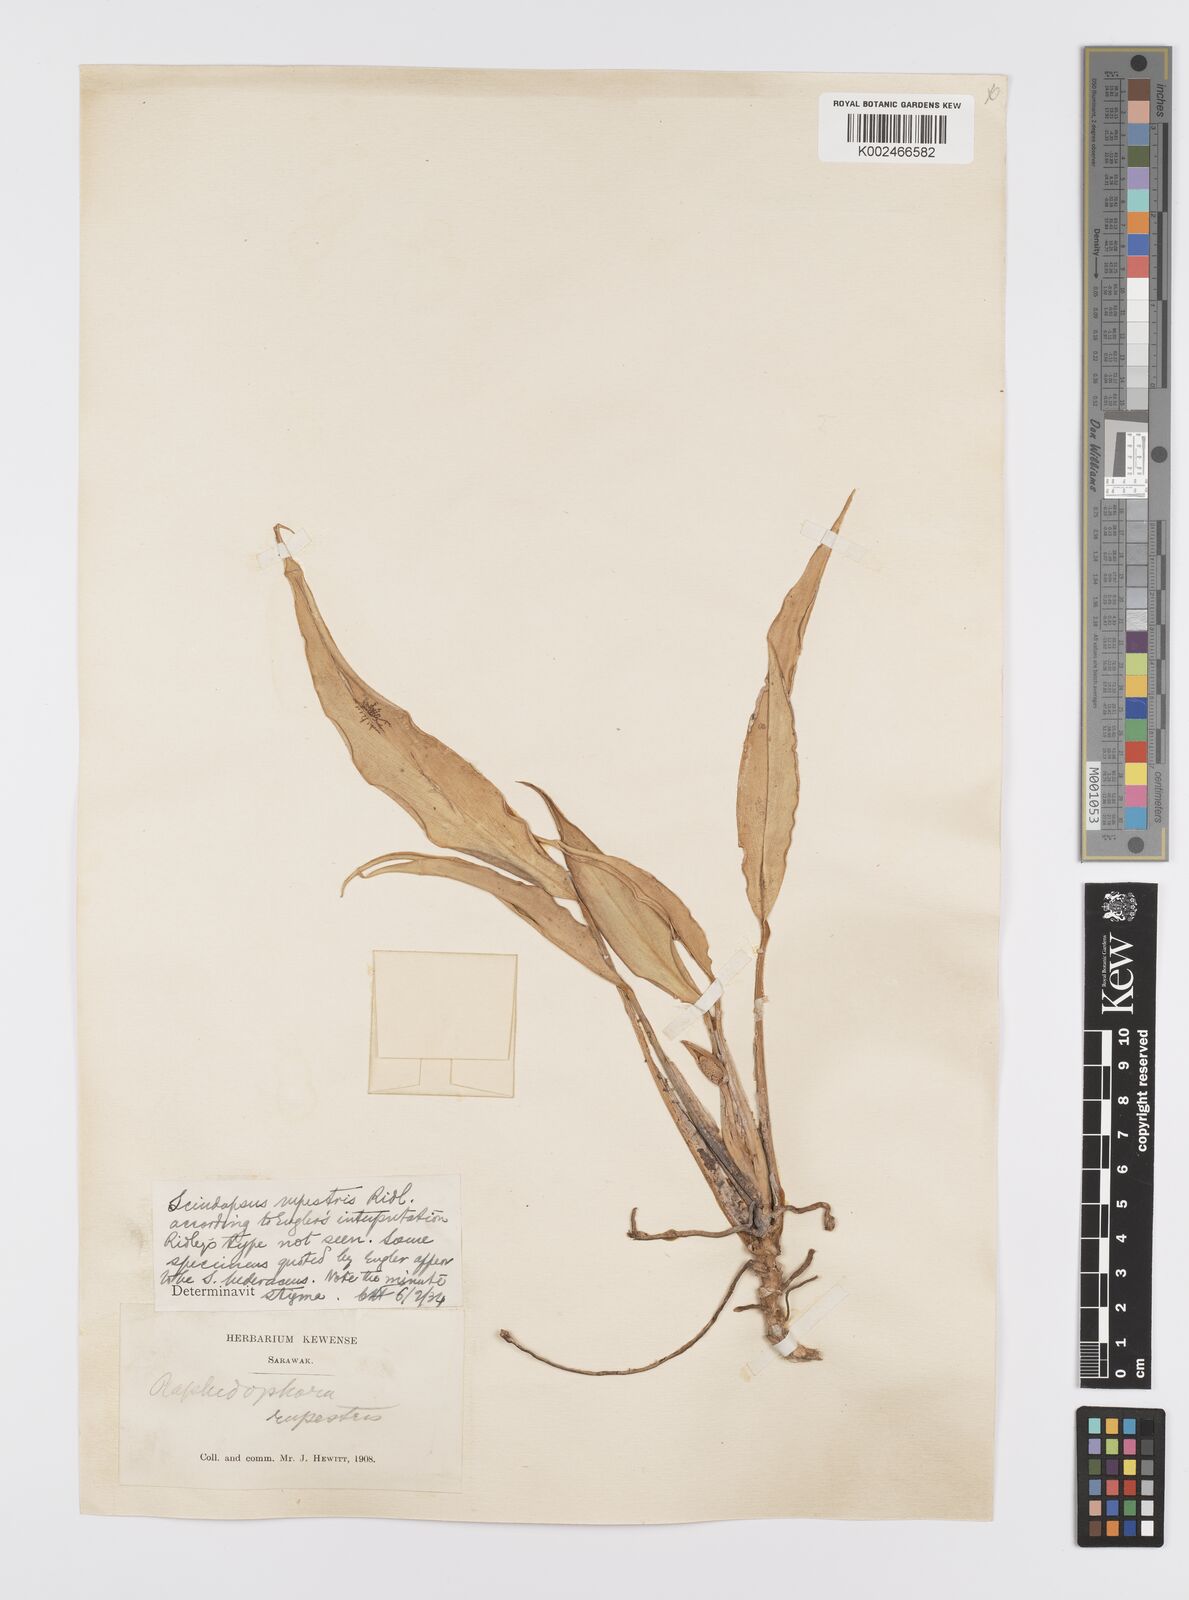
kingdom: Plantae
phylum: Tracheophyta
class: Liliopsida
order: Alismatales
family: Araceae
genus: Scindapsus
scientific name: Scindapsus sumatranus
